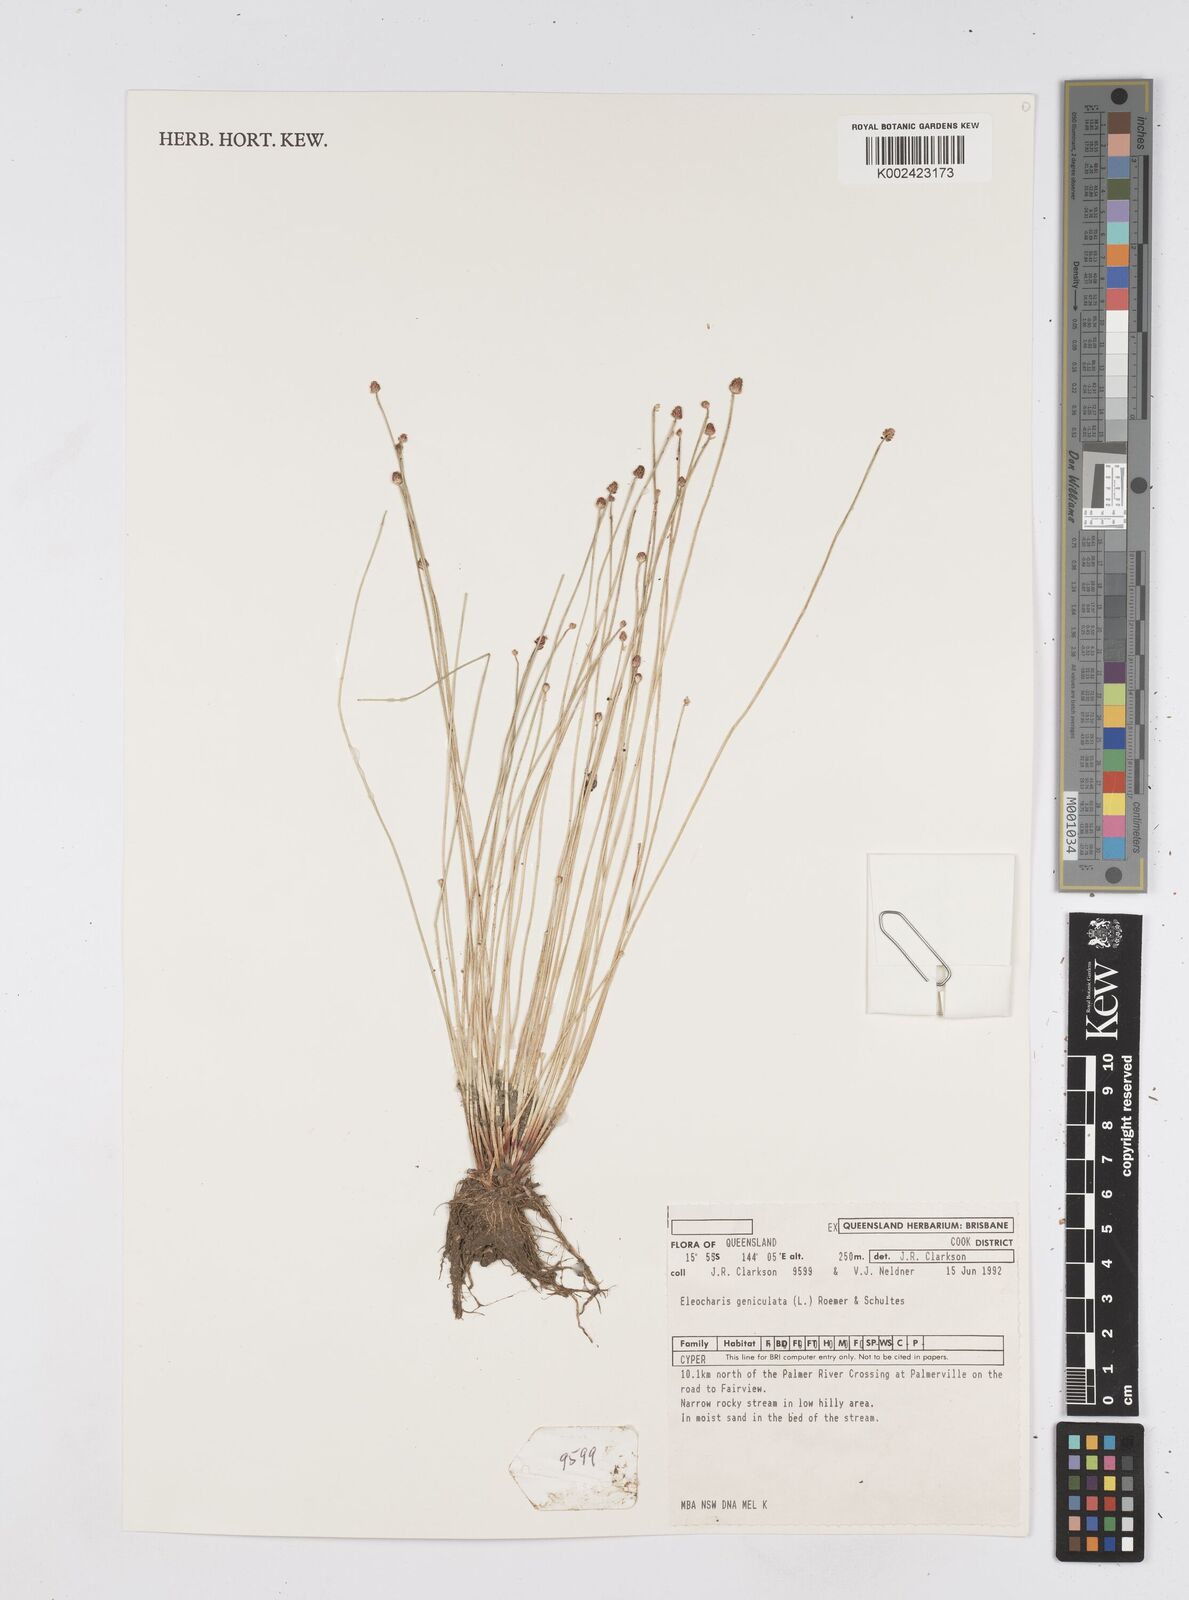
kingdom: Plantae
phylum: Tracheophyta
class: Liliopsida
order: Poales
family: Cyperaceae
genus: Eleocharis
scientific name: Eleocharis geniculata
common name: Canada spikesedge
